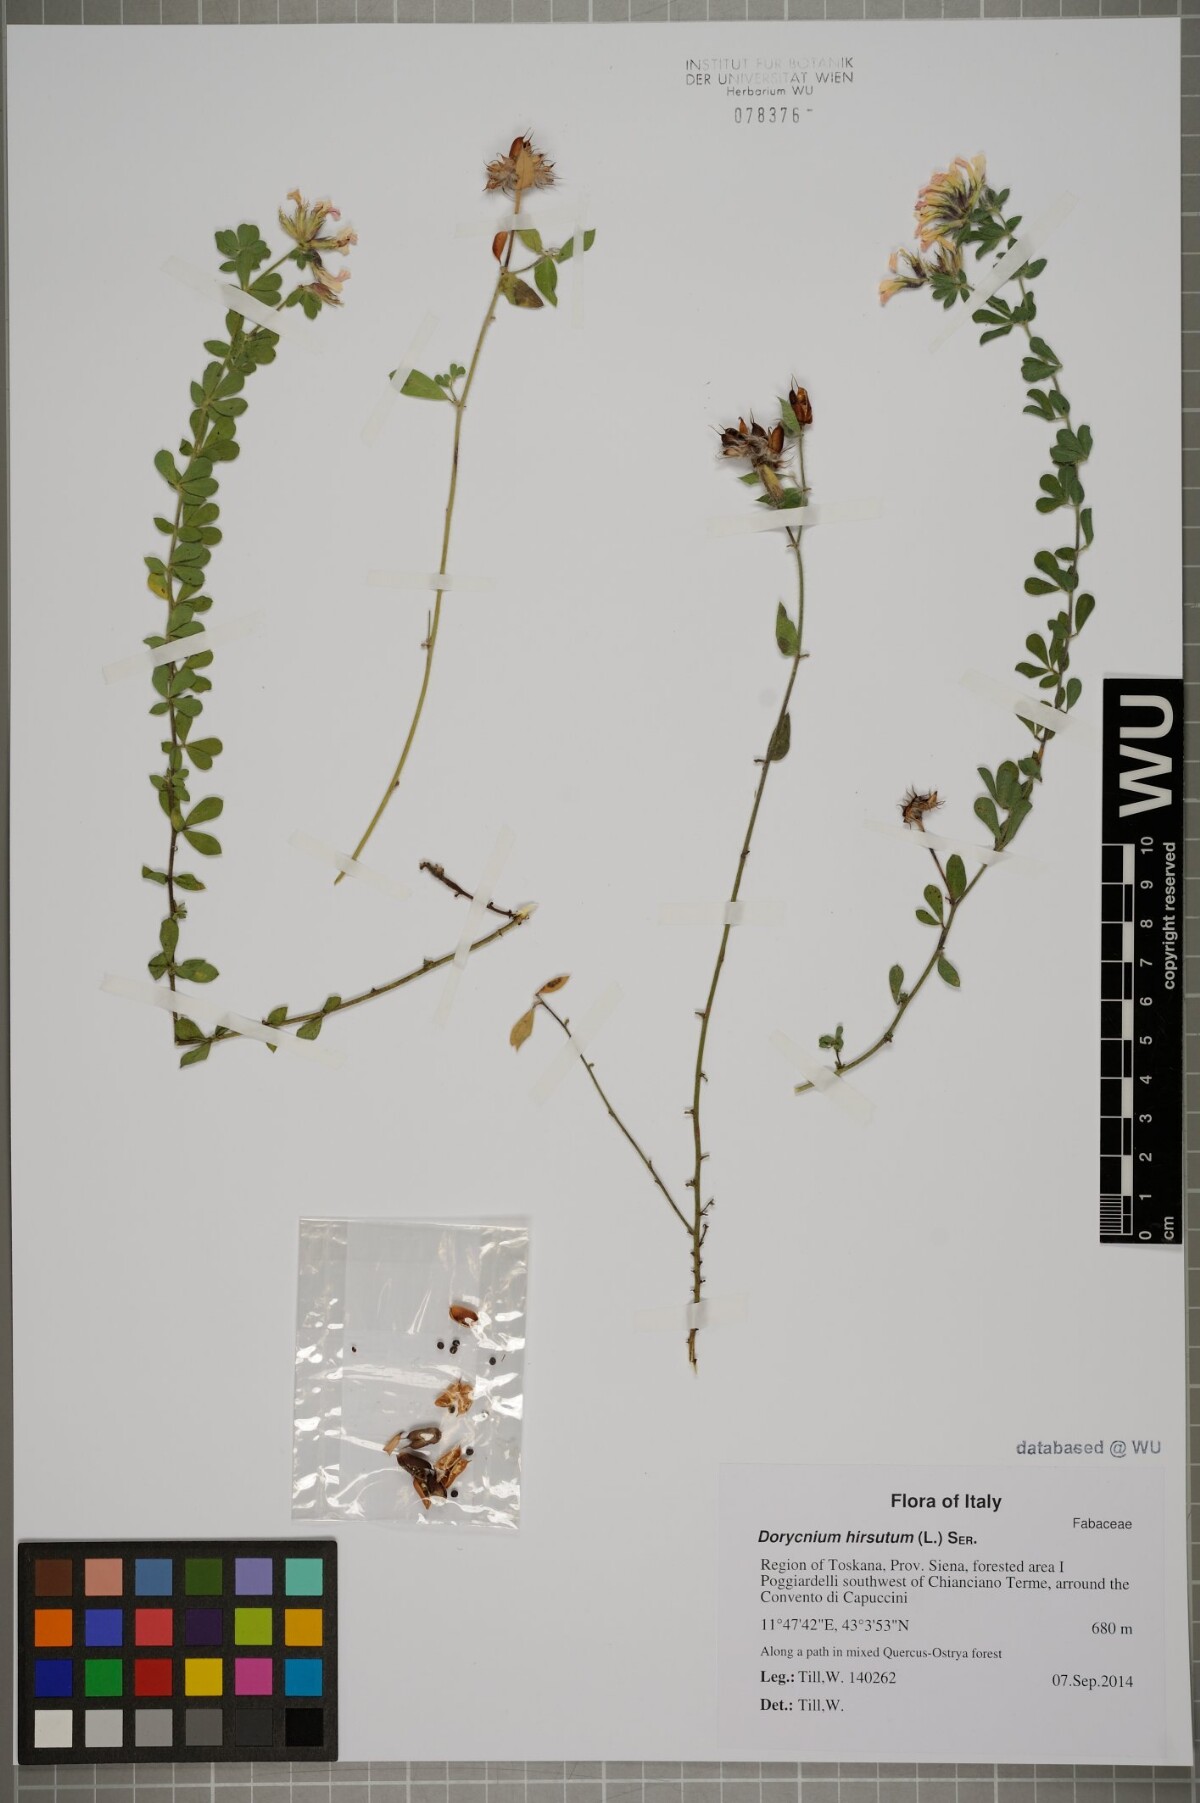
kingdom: Plantae
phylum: Tracheophyta
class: Magnoliopsida
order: Fabales
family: Fabaceae
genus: Lotus
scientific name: Lotus hirsutus
